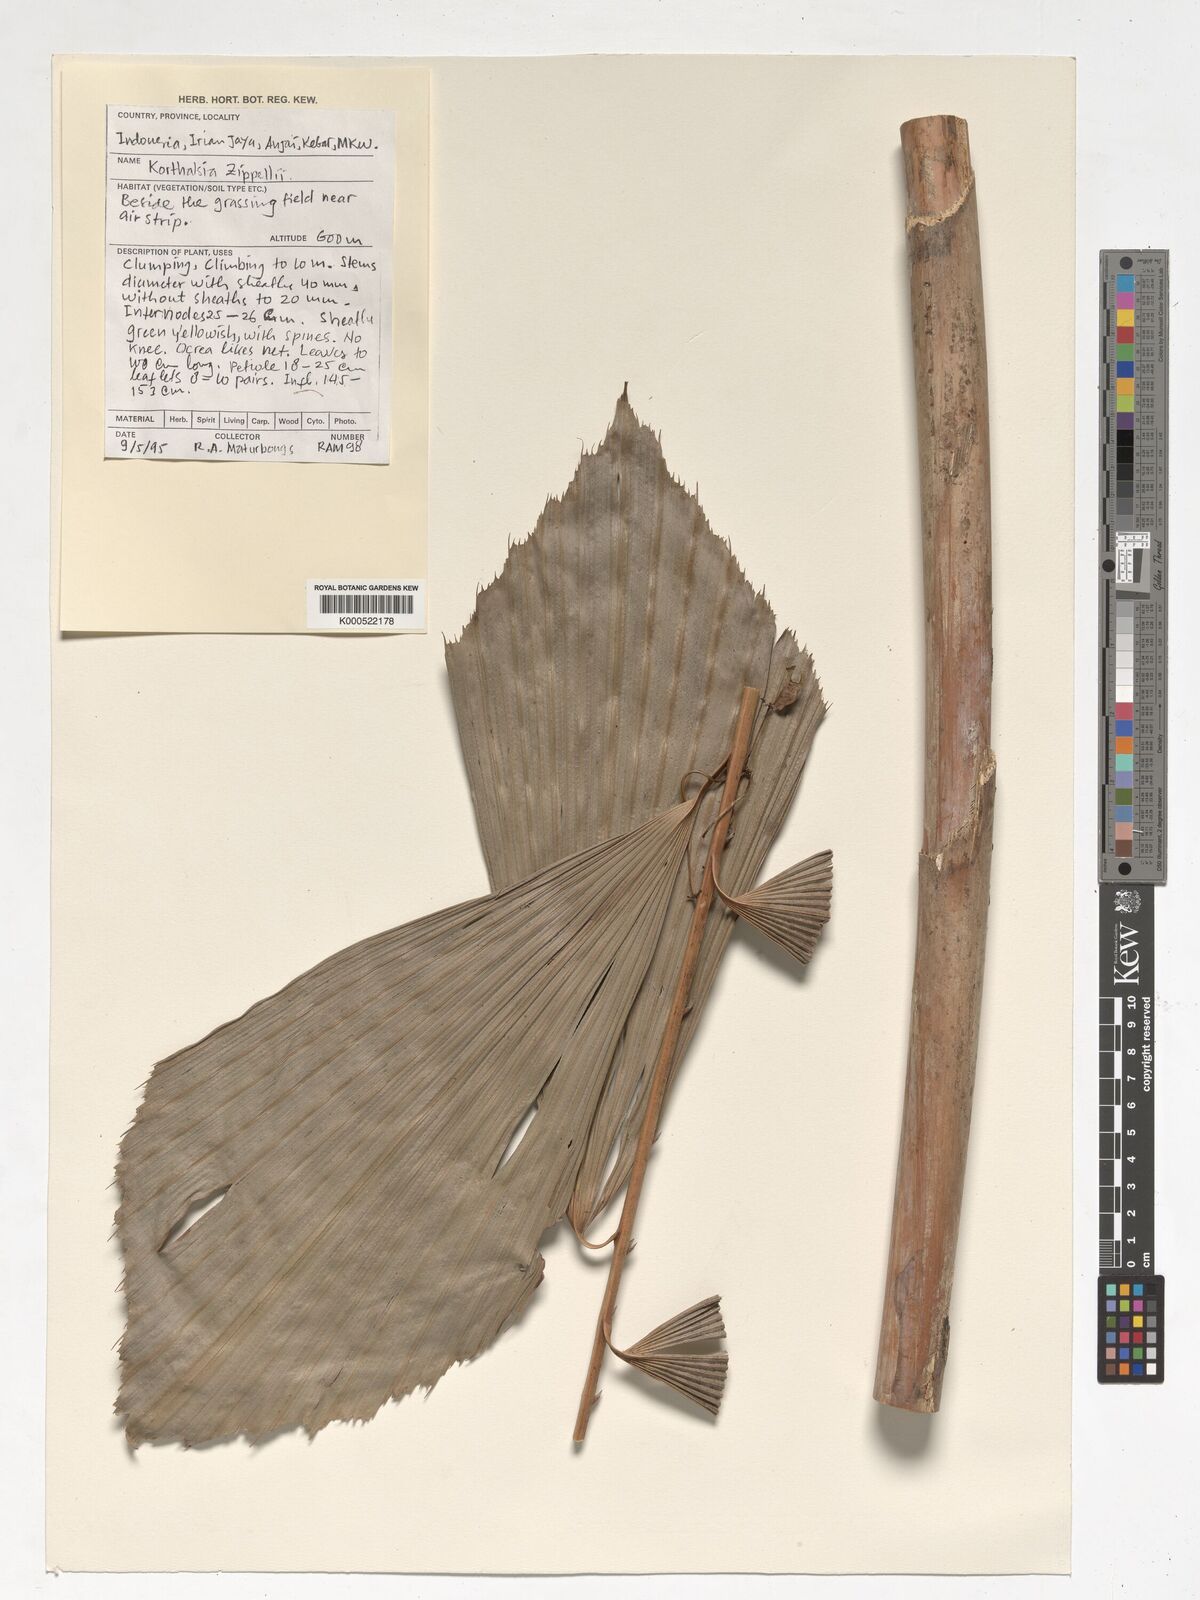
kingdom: Plantae
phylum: Tracheophyta
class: Liliopsida
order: Arecales
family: Arecaceae
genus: Korthalsia
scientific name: Korthalsia zippelii
